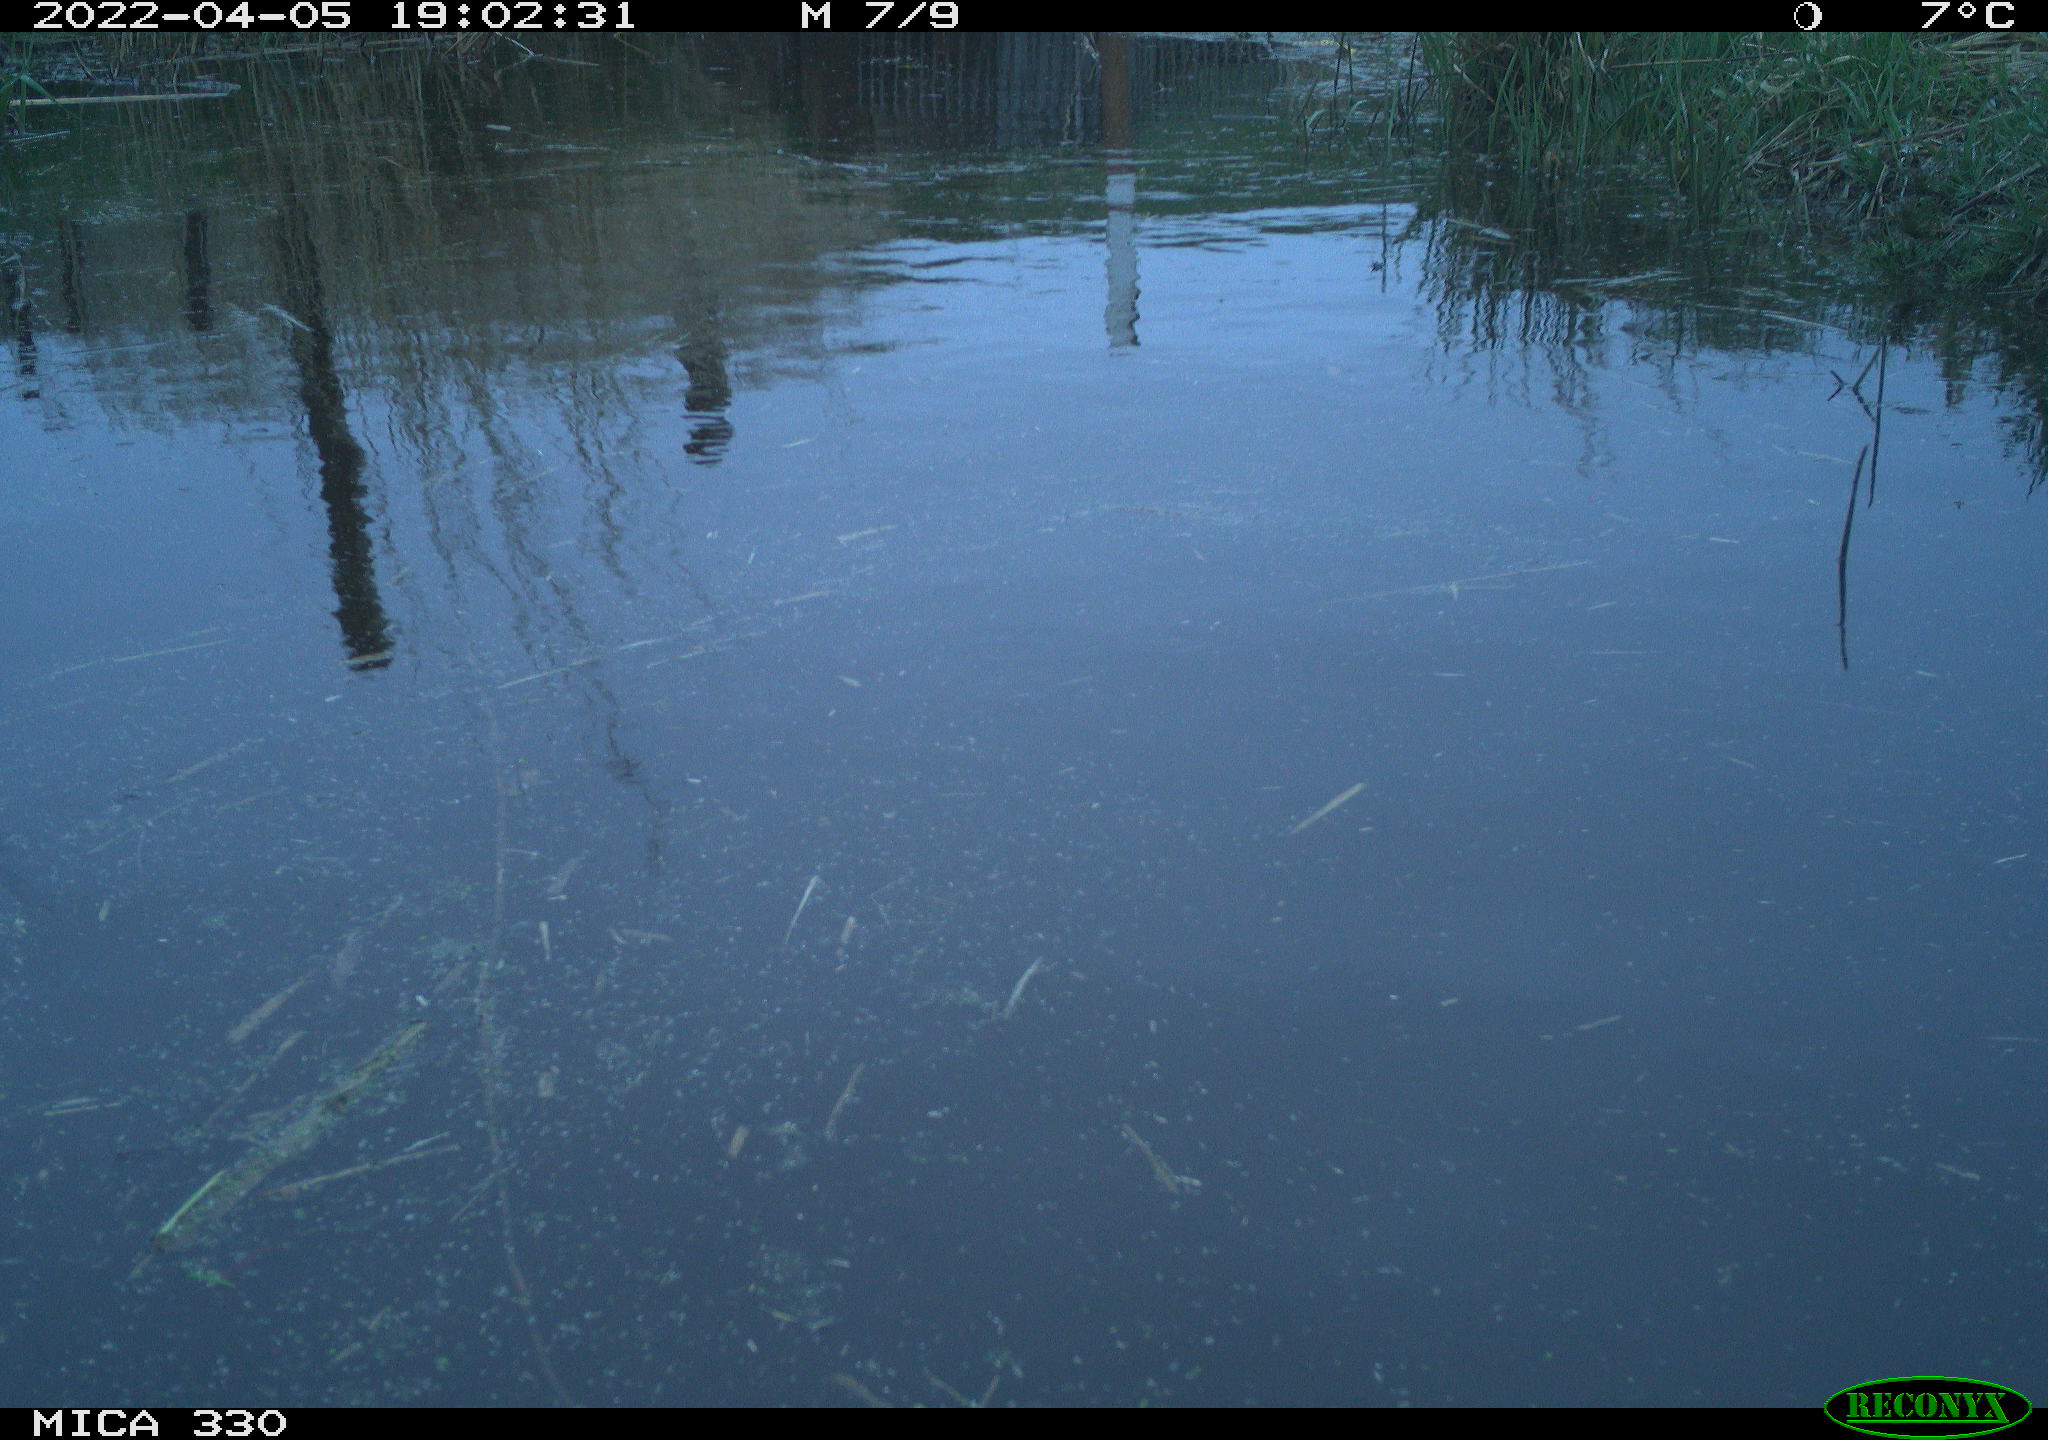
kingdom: Animalia
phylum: Chordata
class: Aves
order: Gruiformes
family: Rallidae
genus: Gallinula
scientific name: Gallinula chloropus
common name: Common moorhen
